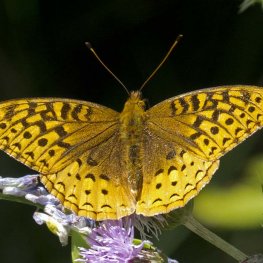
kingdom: Animalia
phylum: Arthropoda
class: Insecta
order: Lepidoptera
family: Nymphalidae
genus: Speyeria
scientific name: Speyeria cybele
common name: Great Spangled Fritillary
